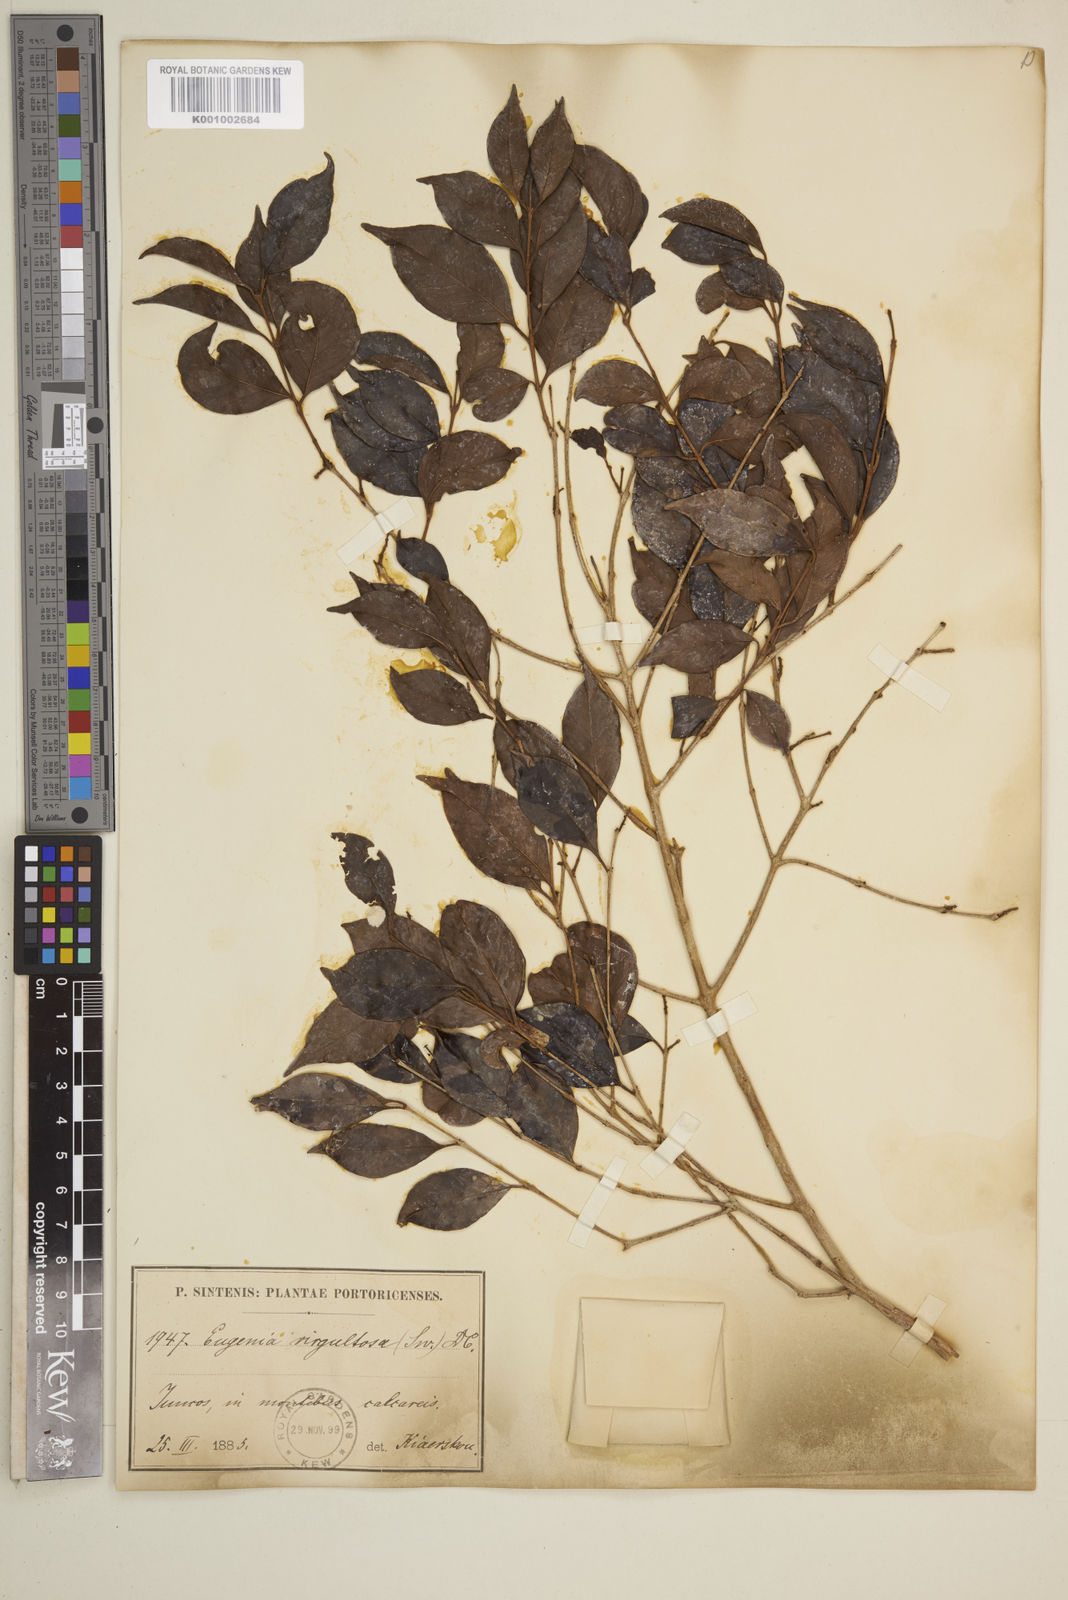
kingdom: Plantae
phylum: Tracheophyta
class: Magnoliopsida
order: Myrtales
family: Myrtaceae
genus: Eugenia
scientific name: Eugenia biflora
